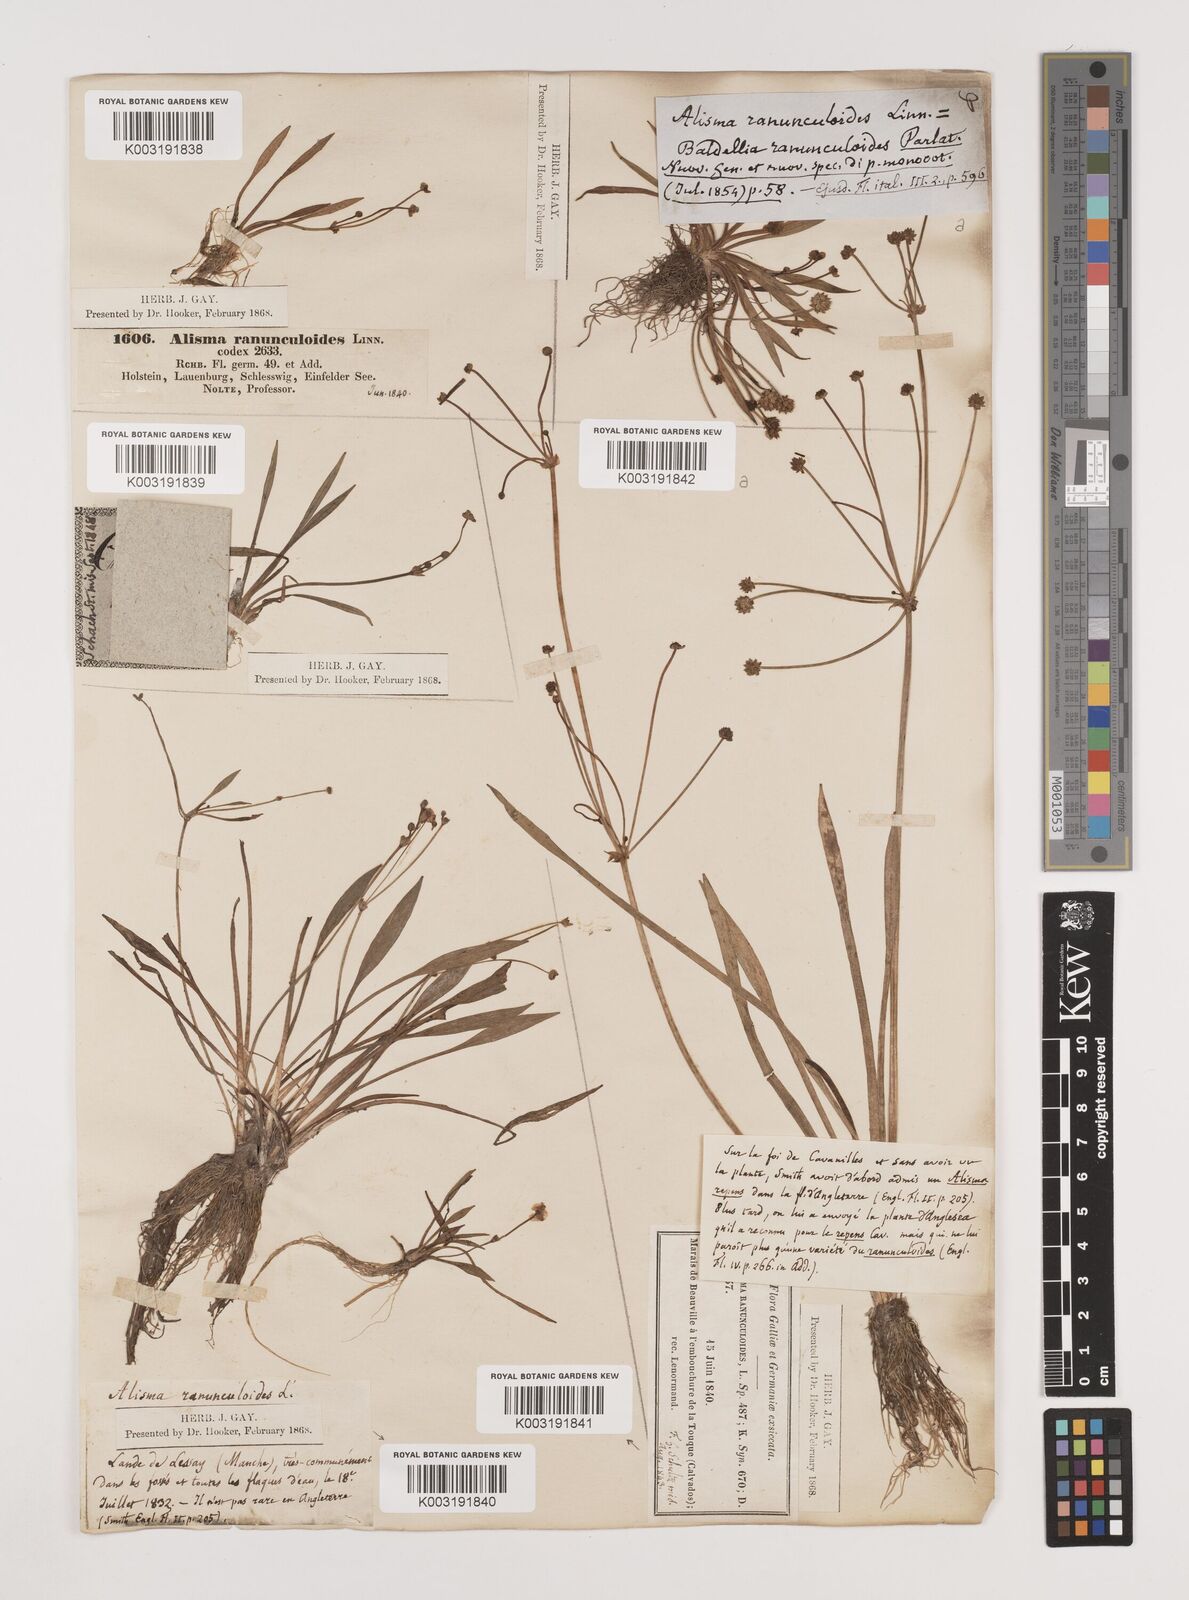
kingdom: Plantae
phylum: Tracheophyta
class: Liliopsida
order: Alismatales
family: Alismataceae
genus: Baldellia
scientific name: Baldellia ranunculoides
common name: Lesser water-plantain
